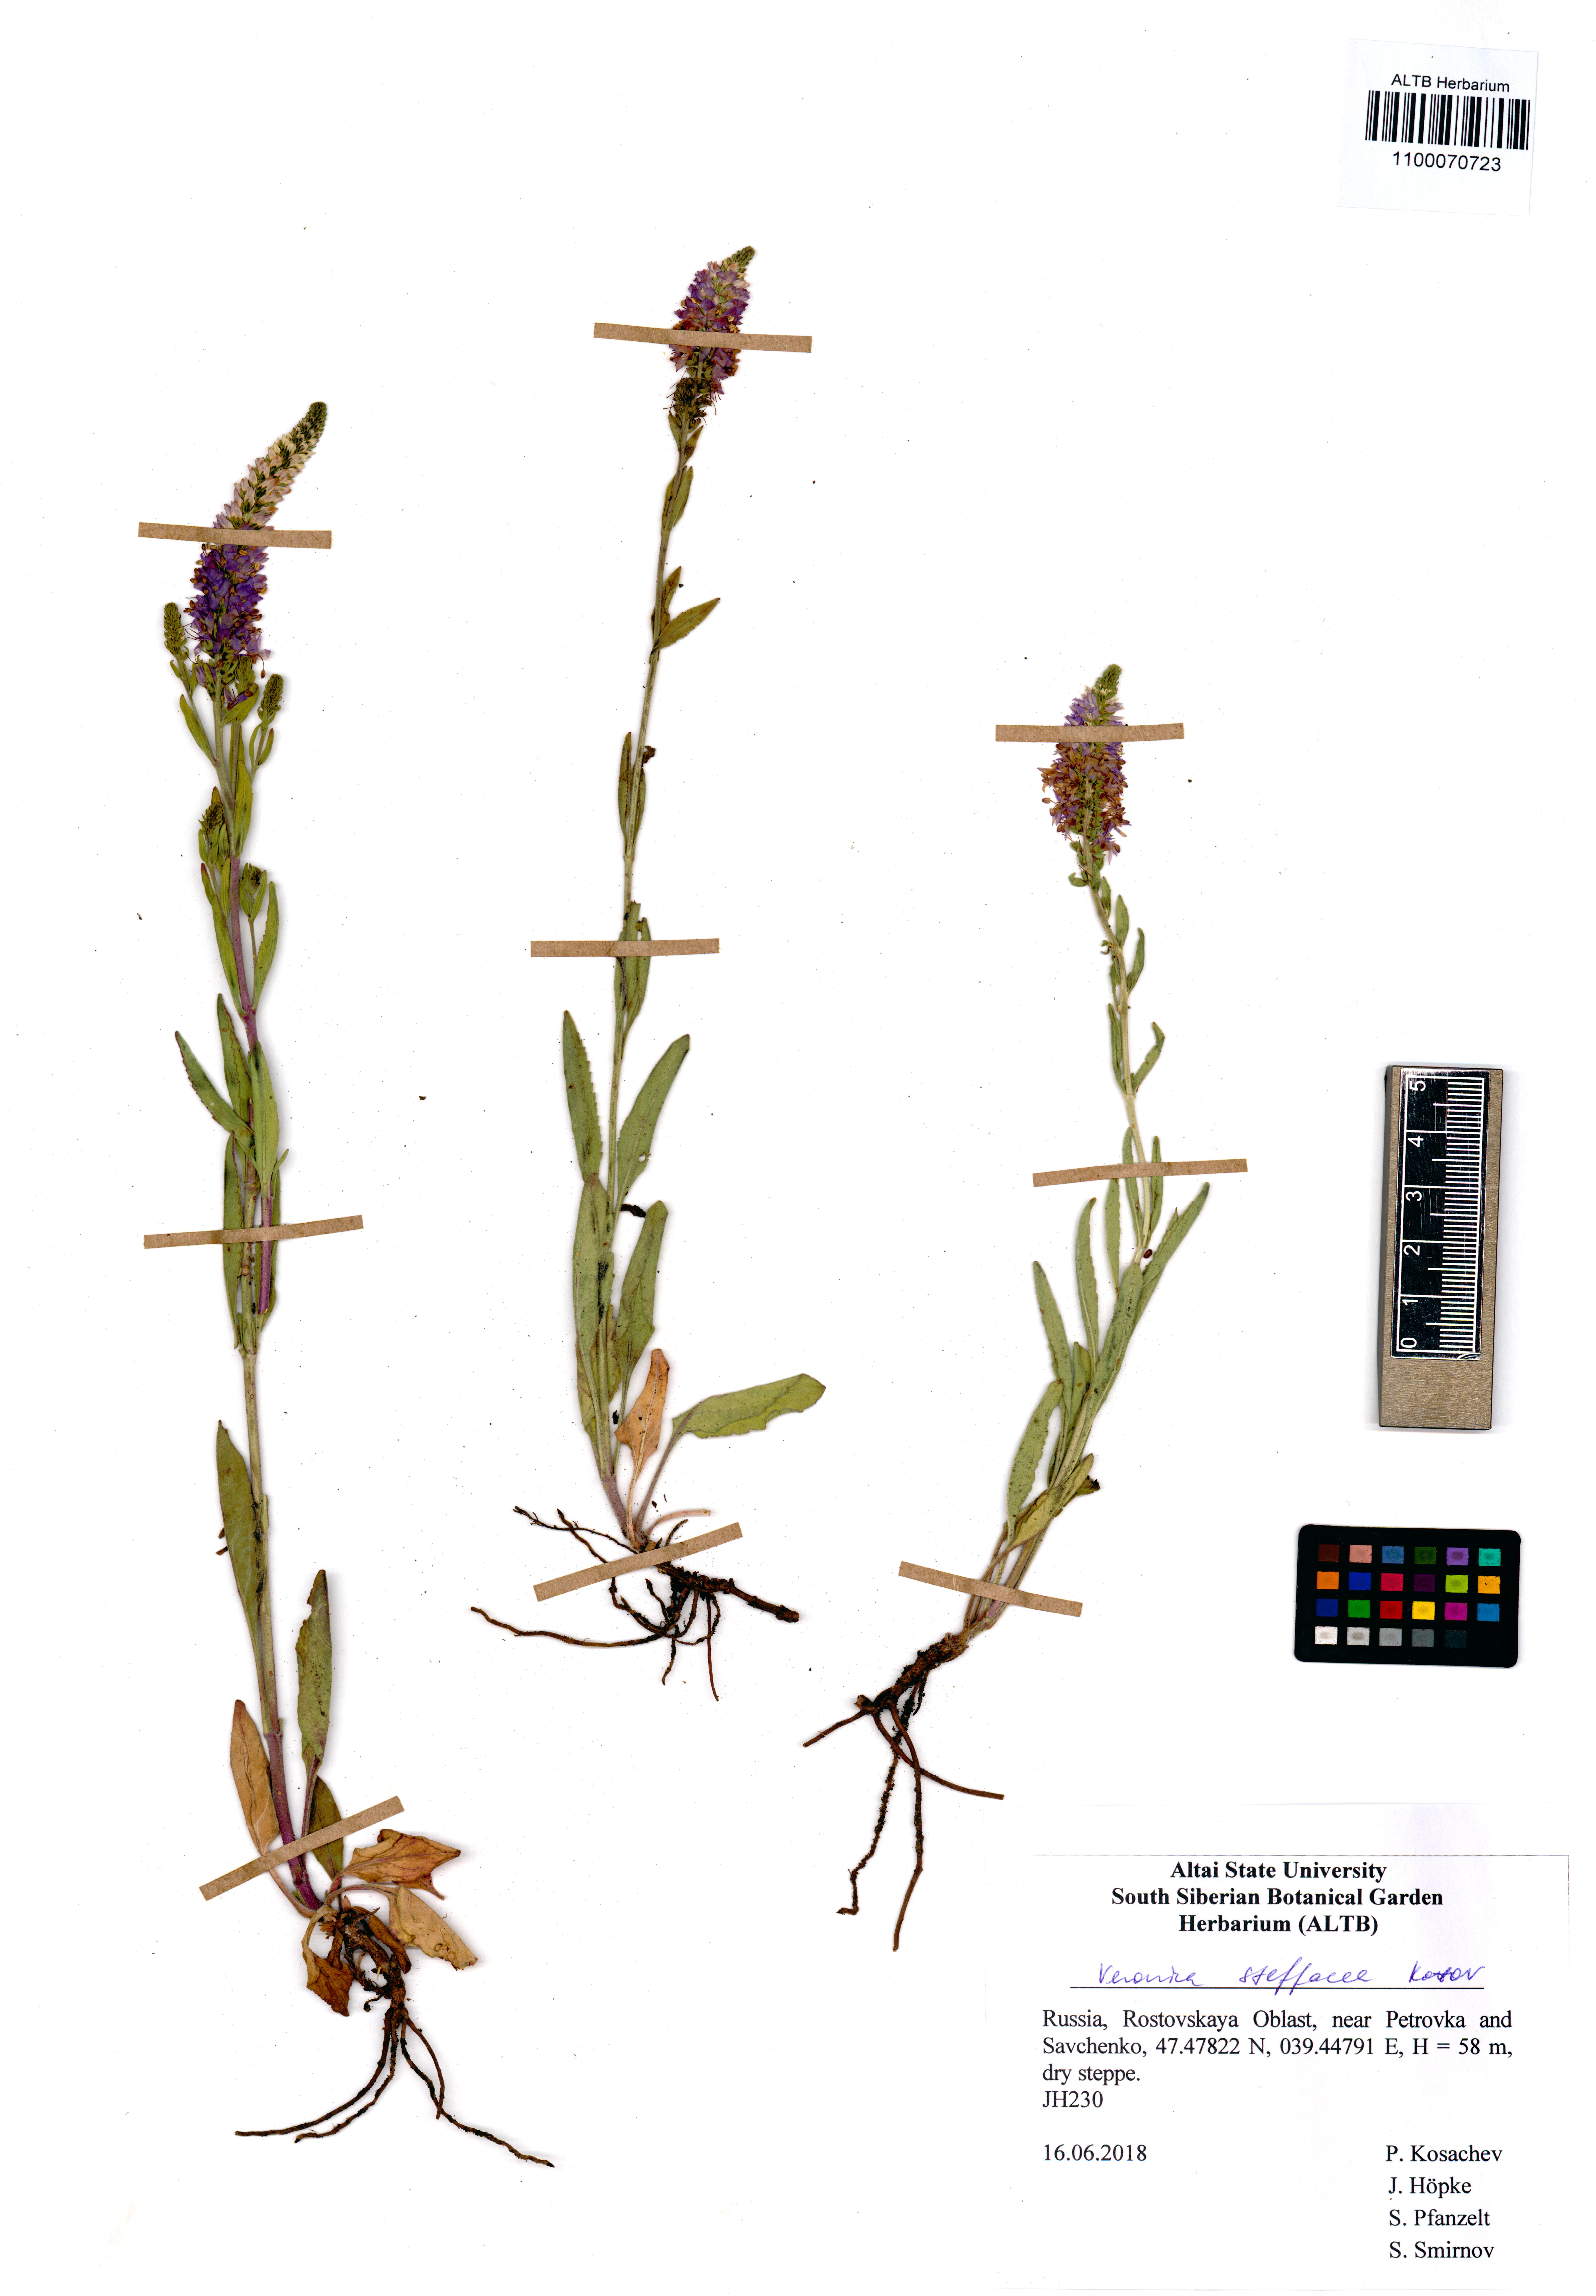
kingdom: Plantae
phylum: Tracheophyta
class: Magnoliopsida
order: Lamiales
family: Plantaginaceae
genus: Veronica
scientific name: Veronica barrelieri
